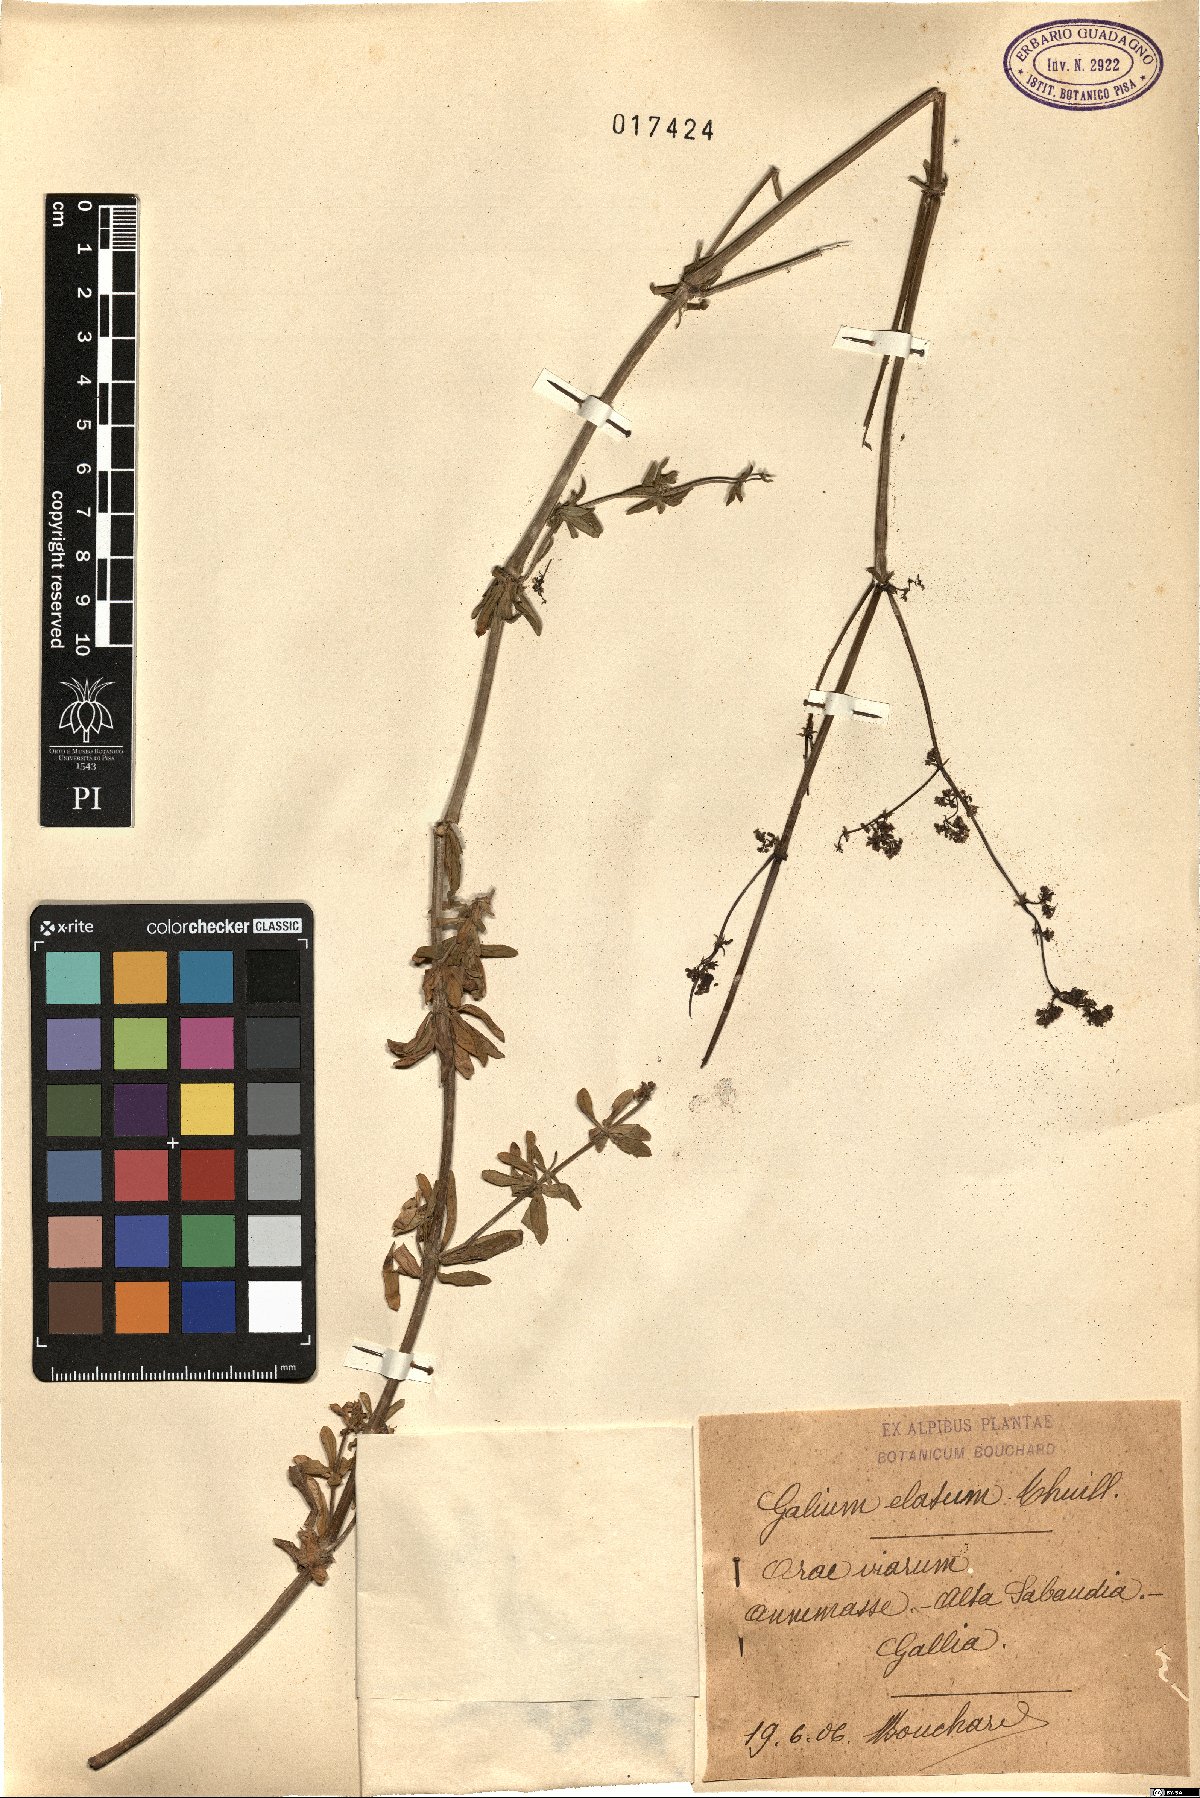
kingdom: Plantae
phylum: Tracheophyta
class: Magnoliopsida
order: Gentianales
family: Rubiaceae
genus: Galium
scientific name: Galium mollugo
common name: Hedge bedstraw
